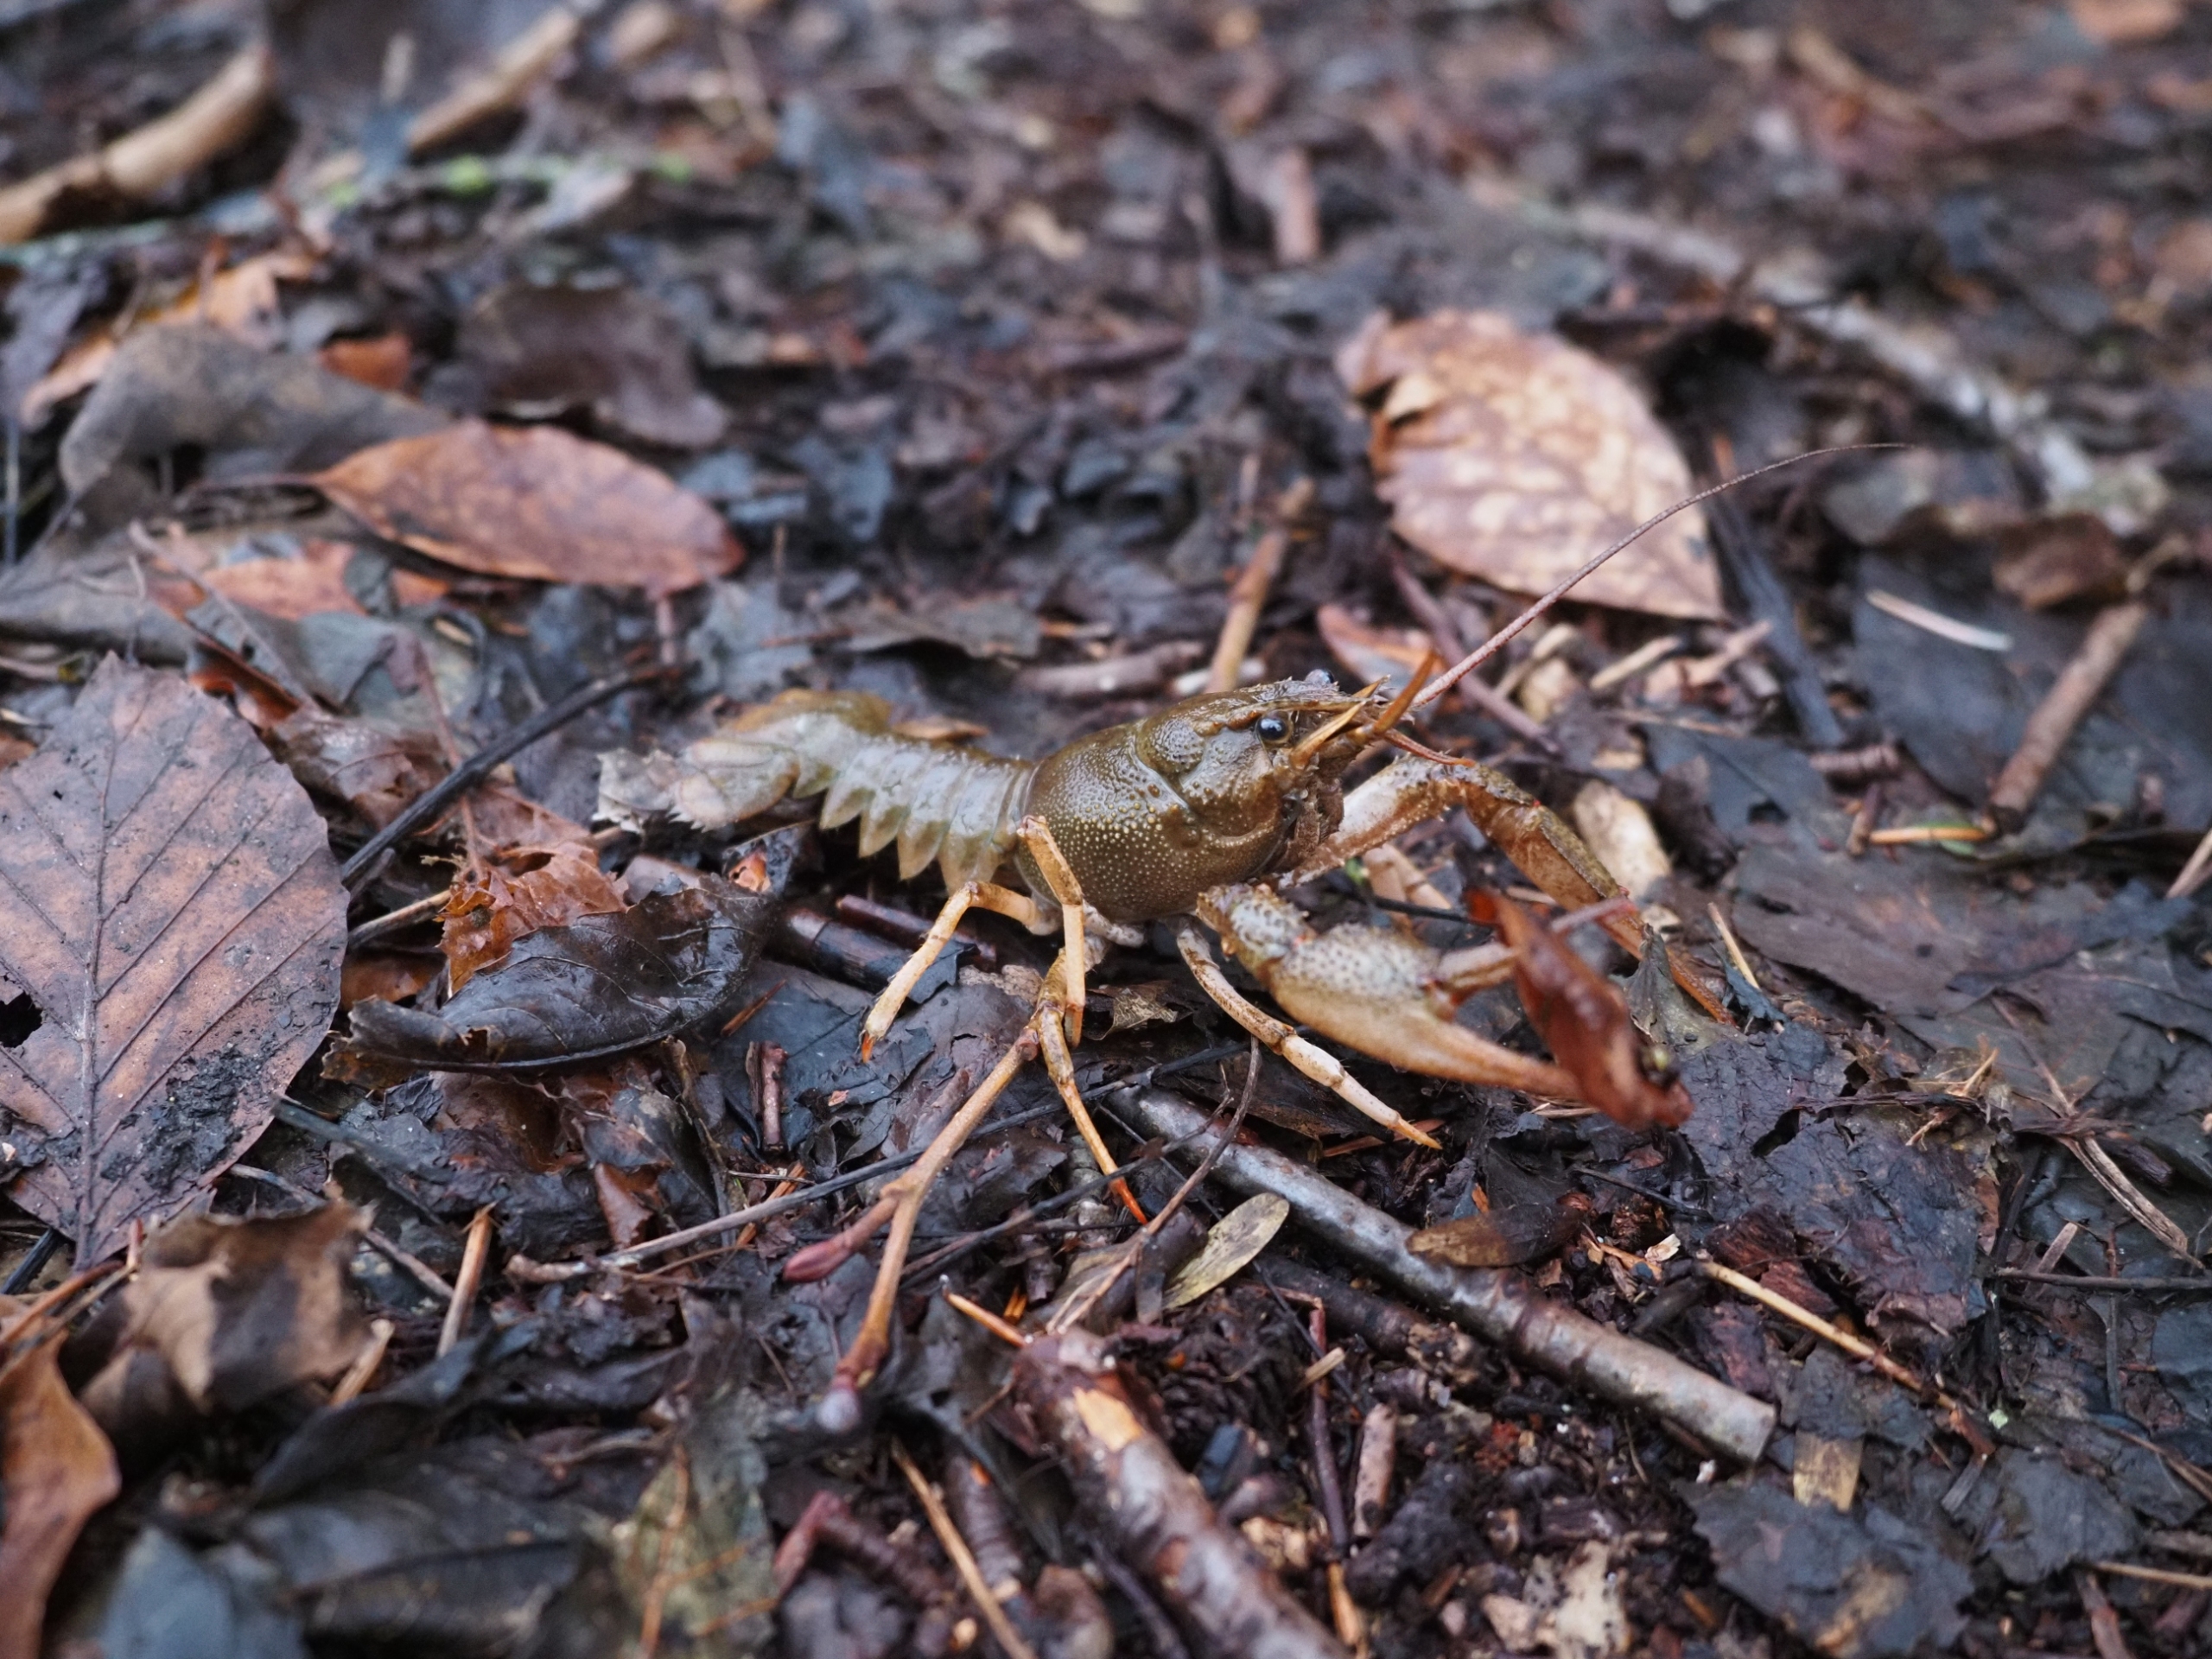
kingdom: Animalia
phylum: Arthropoda
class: Malacostraca
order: Decapoda
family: Astacidae
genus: Pontastacus
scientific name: Pontastacus leptodactylus
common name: Galizisk sumpkrebs
